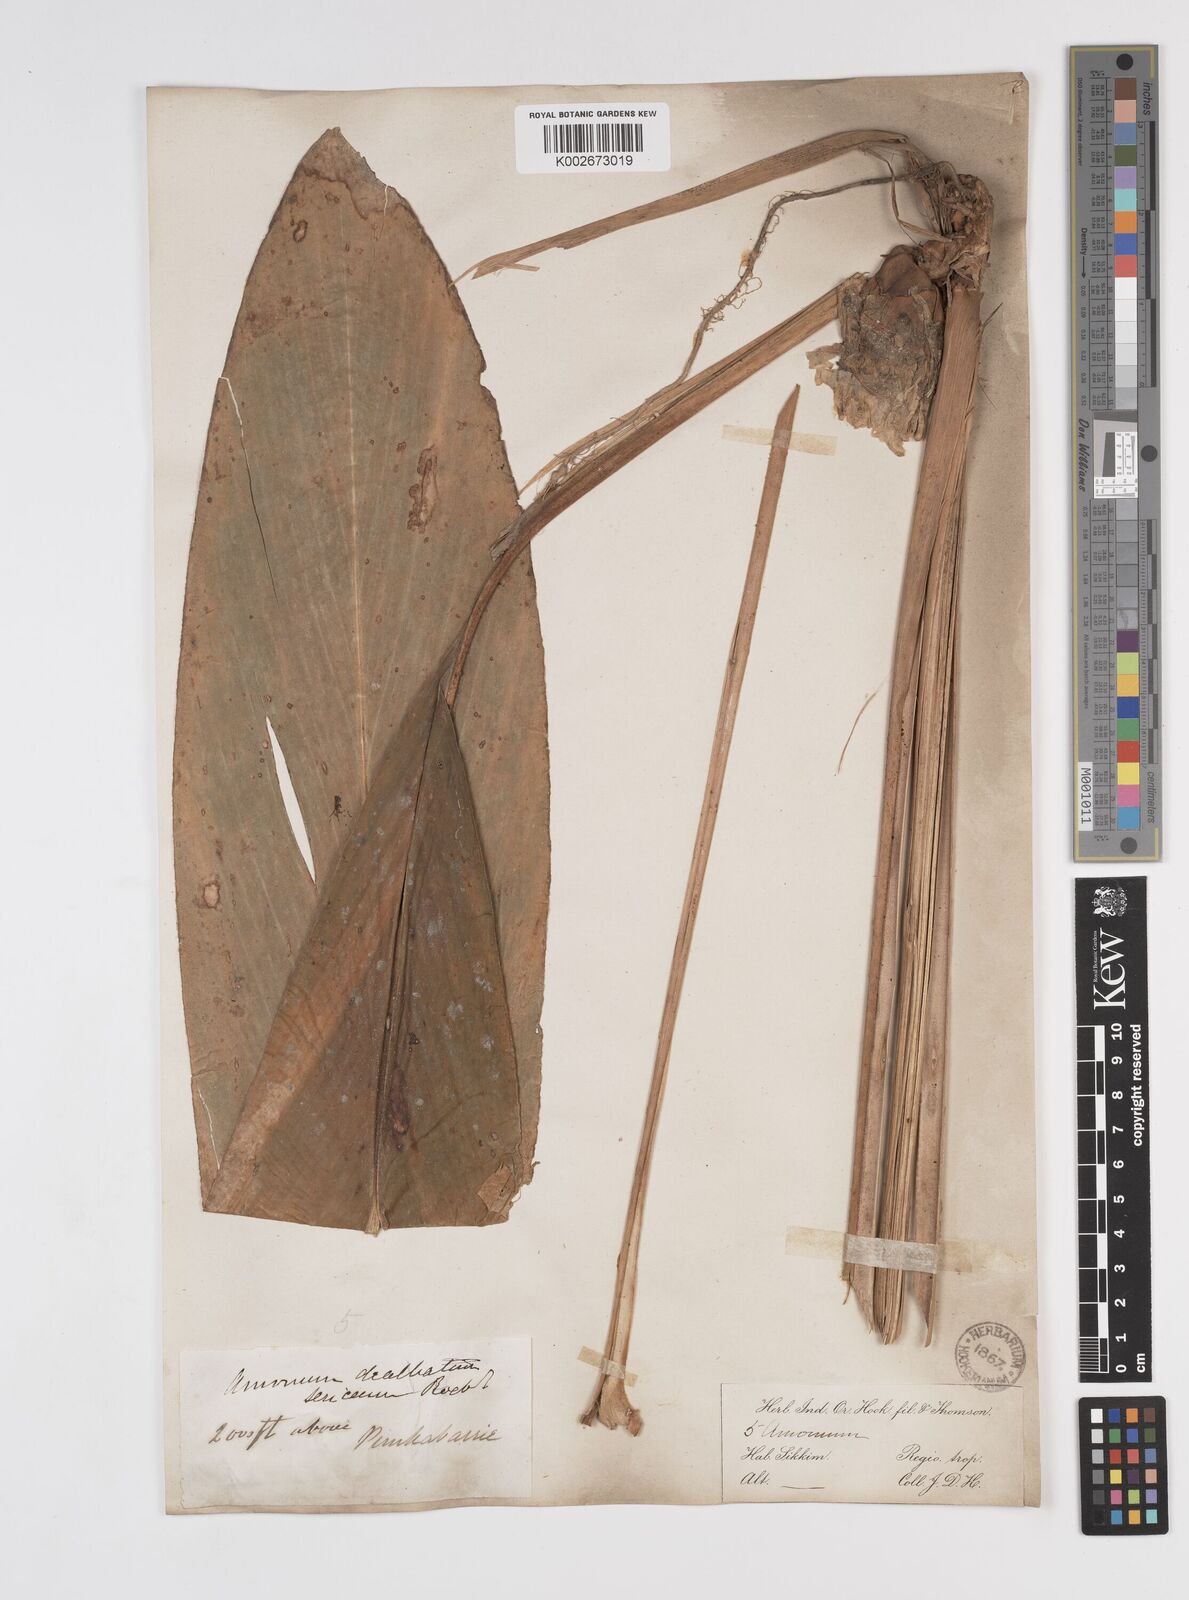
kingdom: Plantae
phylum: Tracheophyta
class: Liliopsida
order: Zingiberales
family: Zingiberaceae
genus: Amomum
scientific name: Amomum dealbatum
